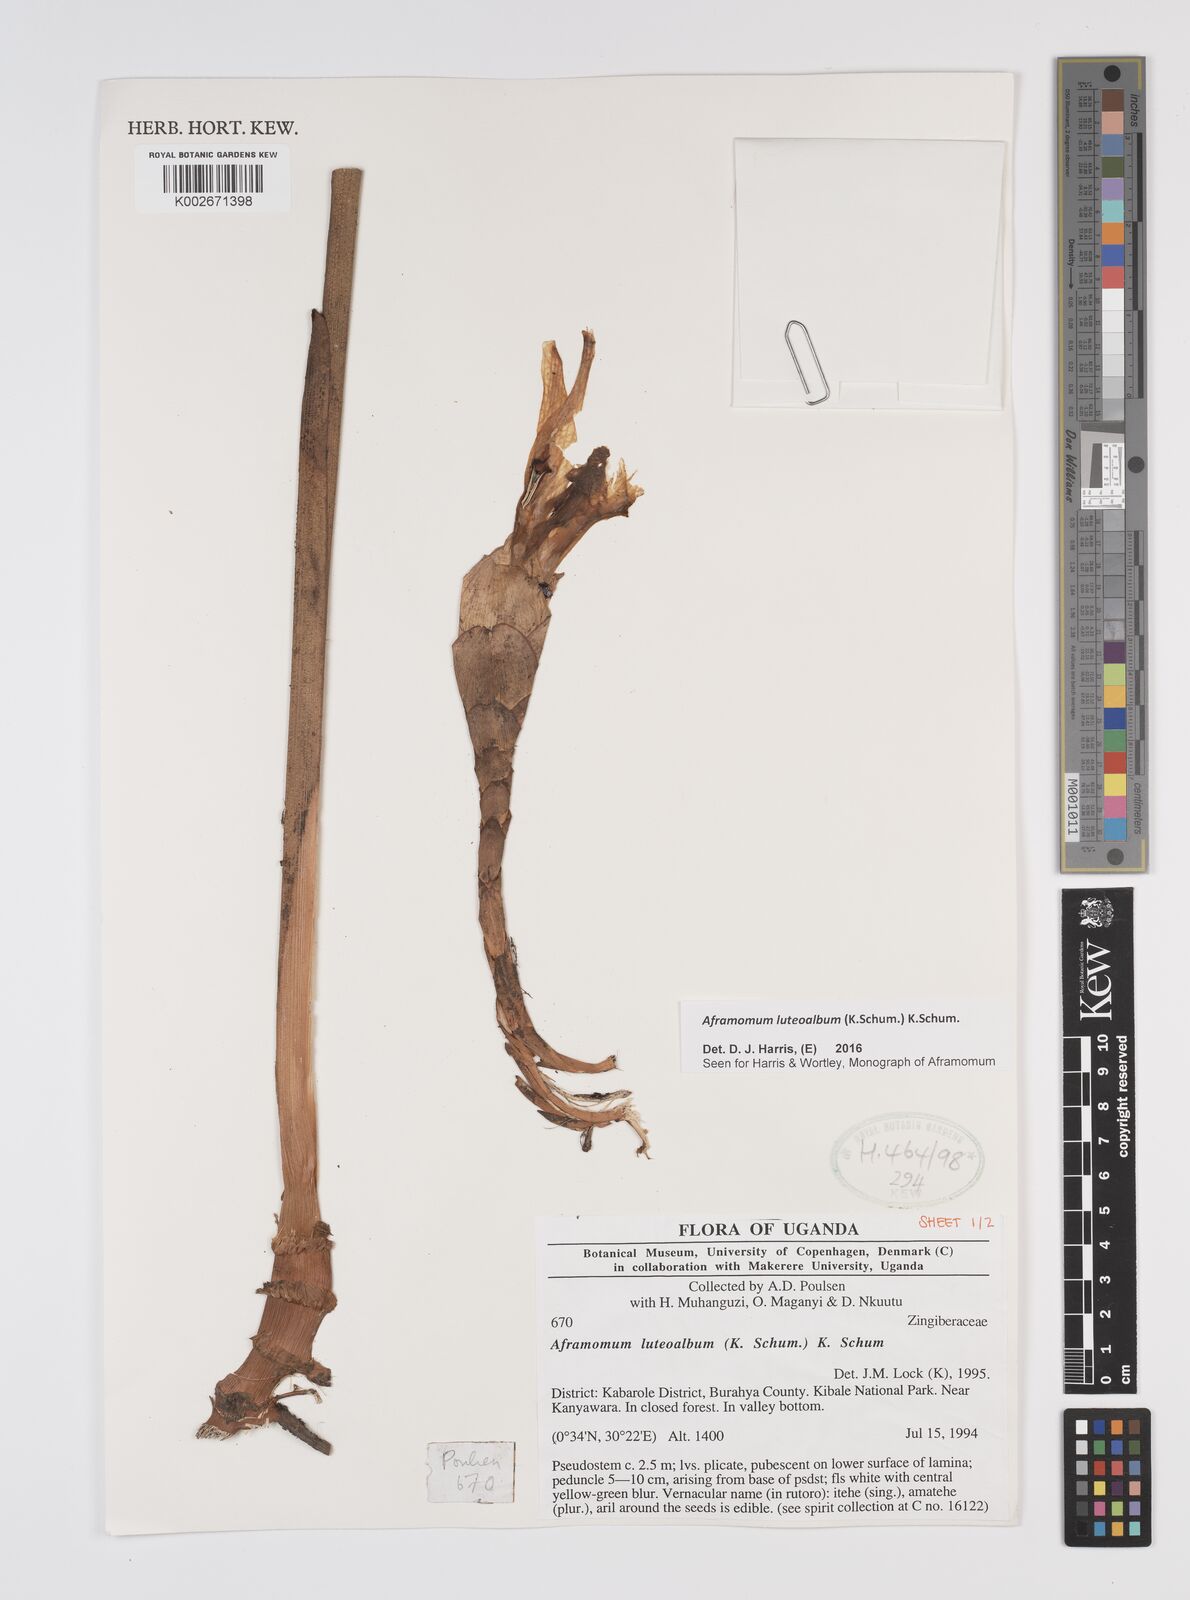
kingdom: Plantae
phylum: Tracheophyta
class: Liliopsida
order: Zingiberales
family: Zingiberaceae
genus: Aframomum
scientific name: Aframomum luteoalbum
